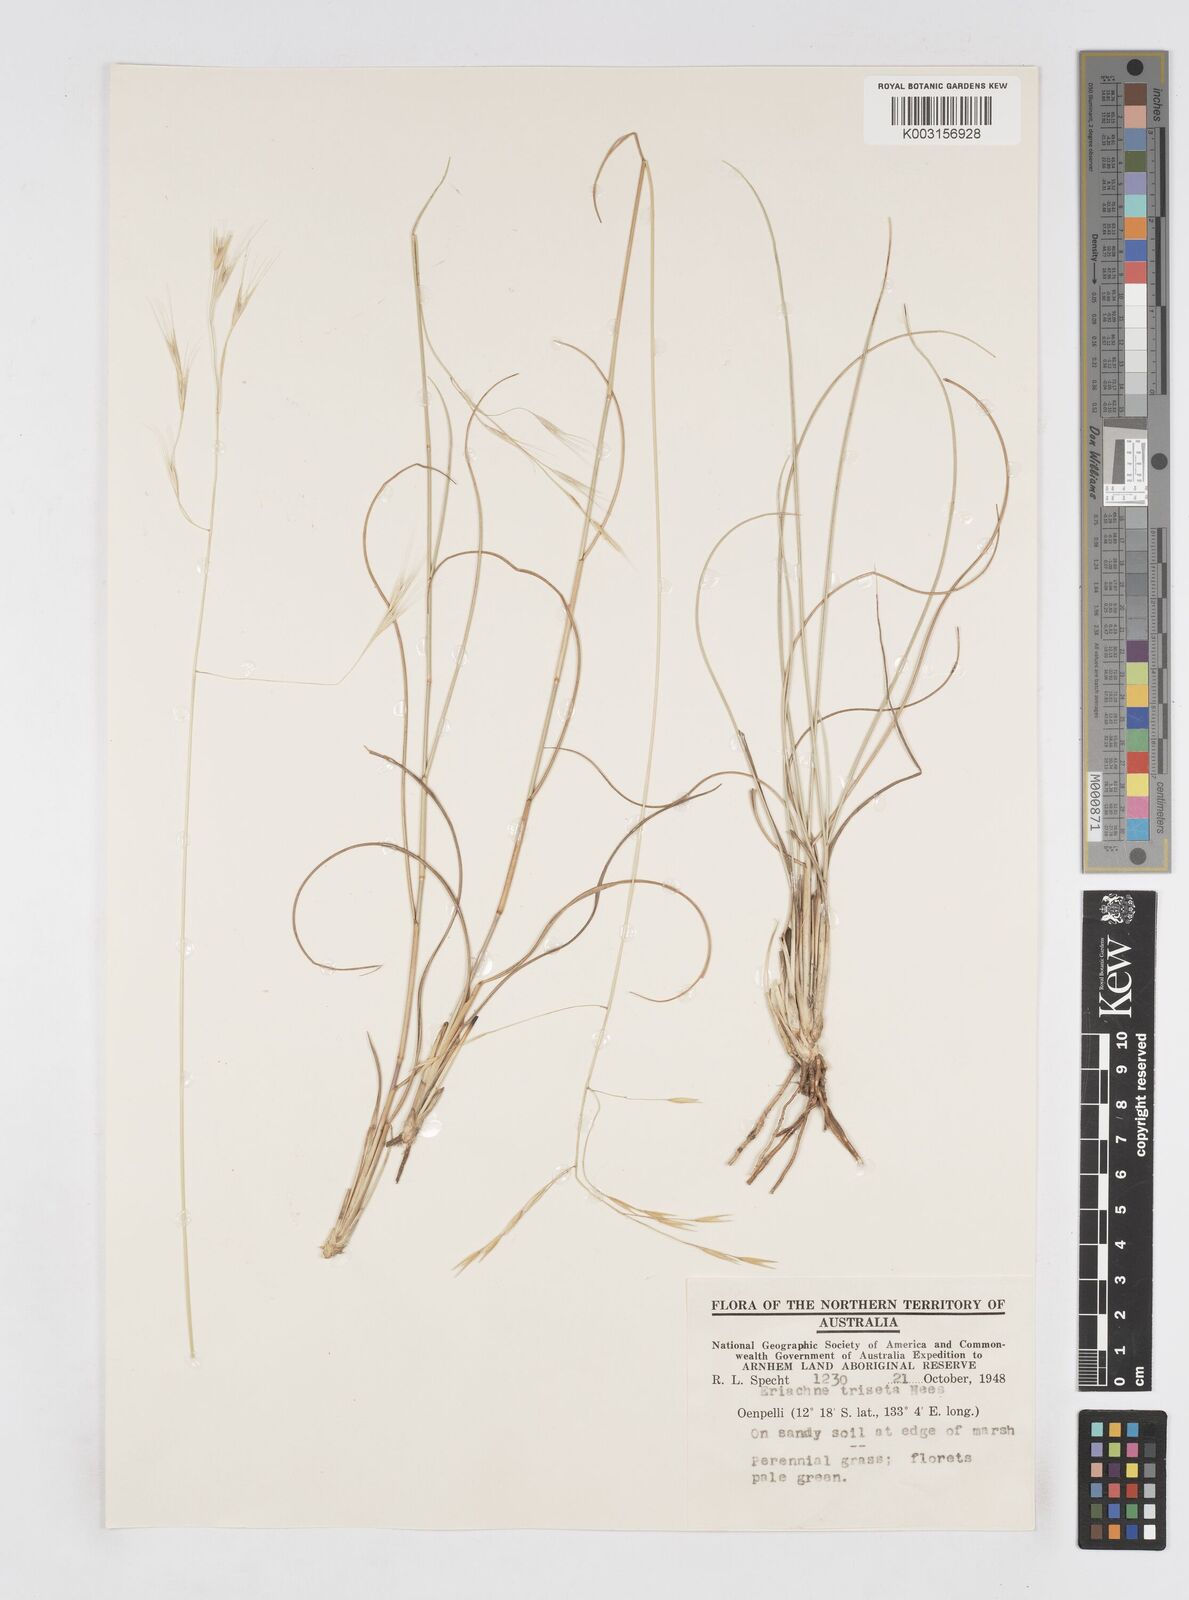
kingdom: Plantae
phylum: Tracheophyta
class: Liliopsida
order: Poales
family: Poaceae
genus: Eriachne
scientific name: Eriachne triseta
